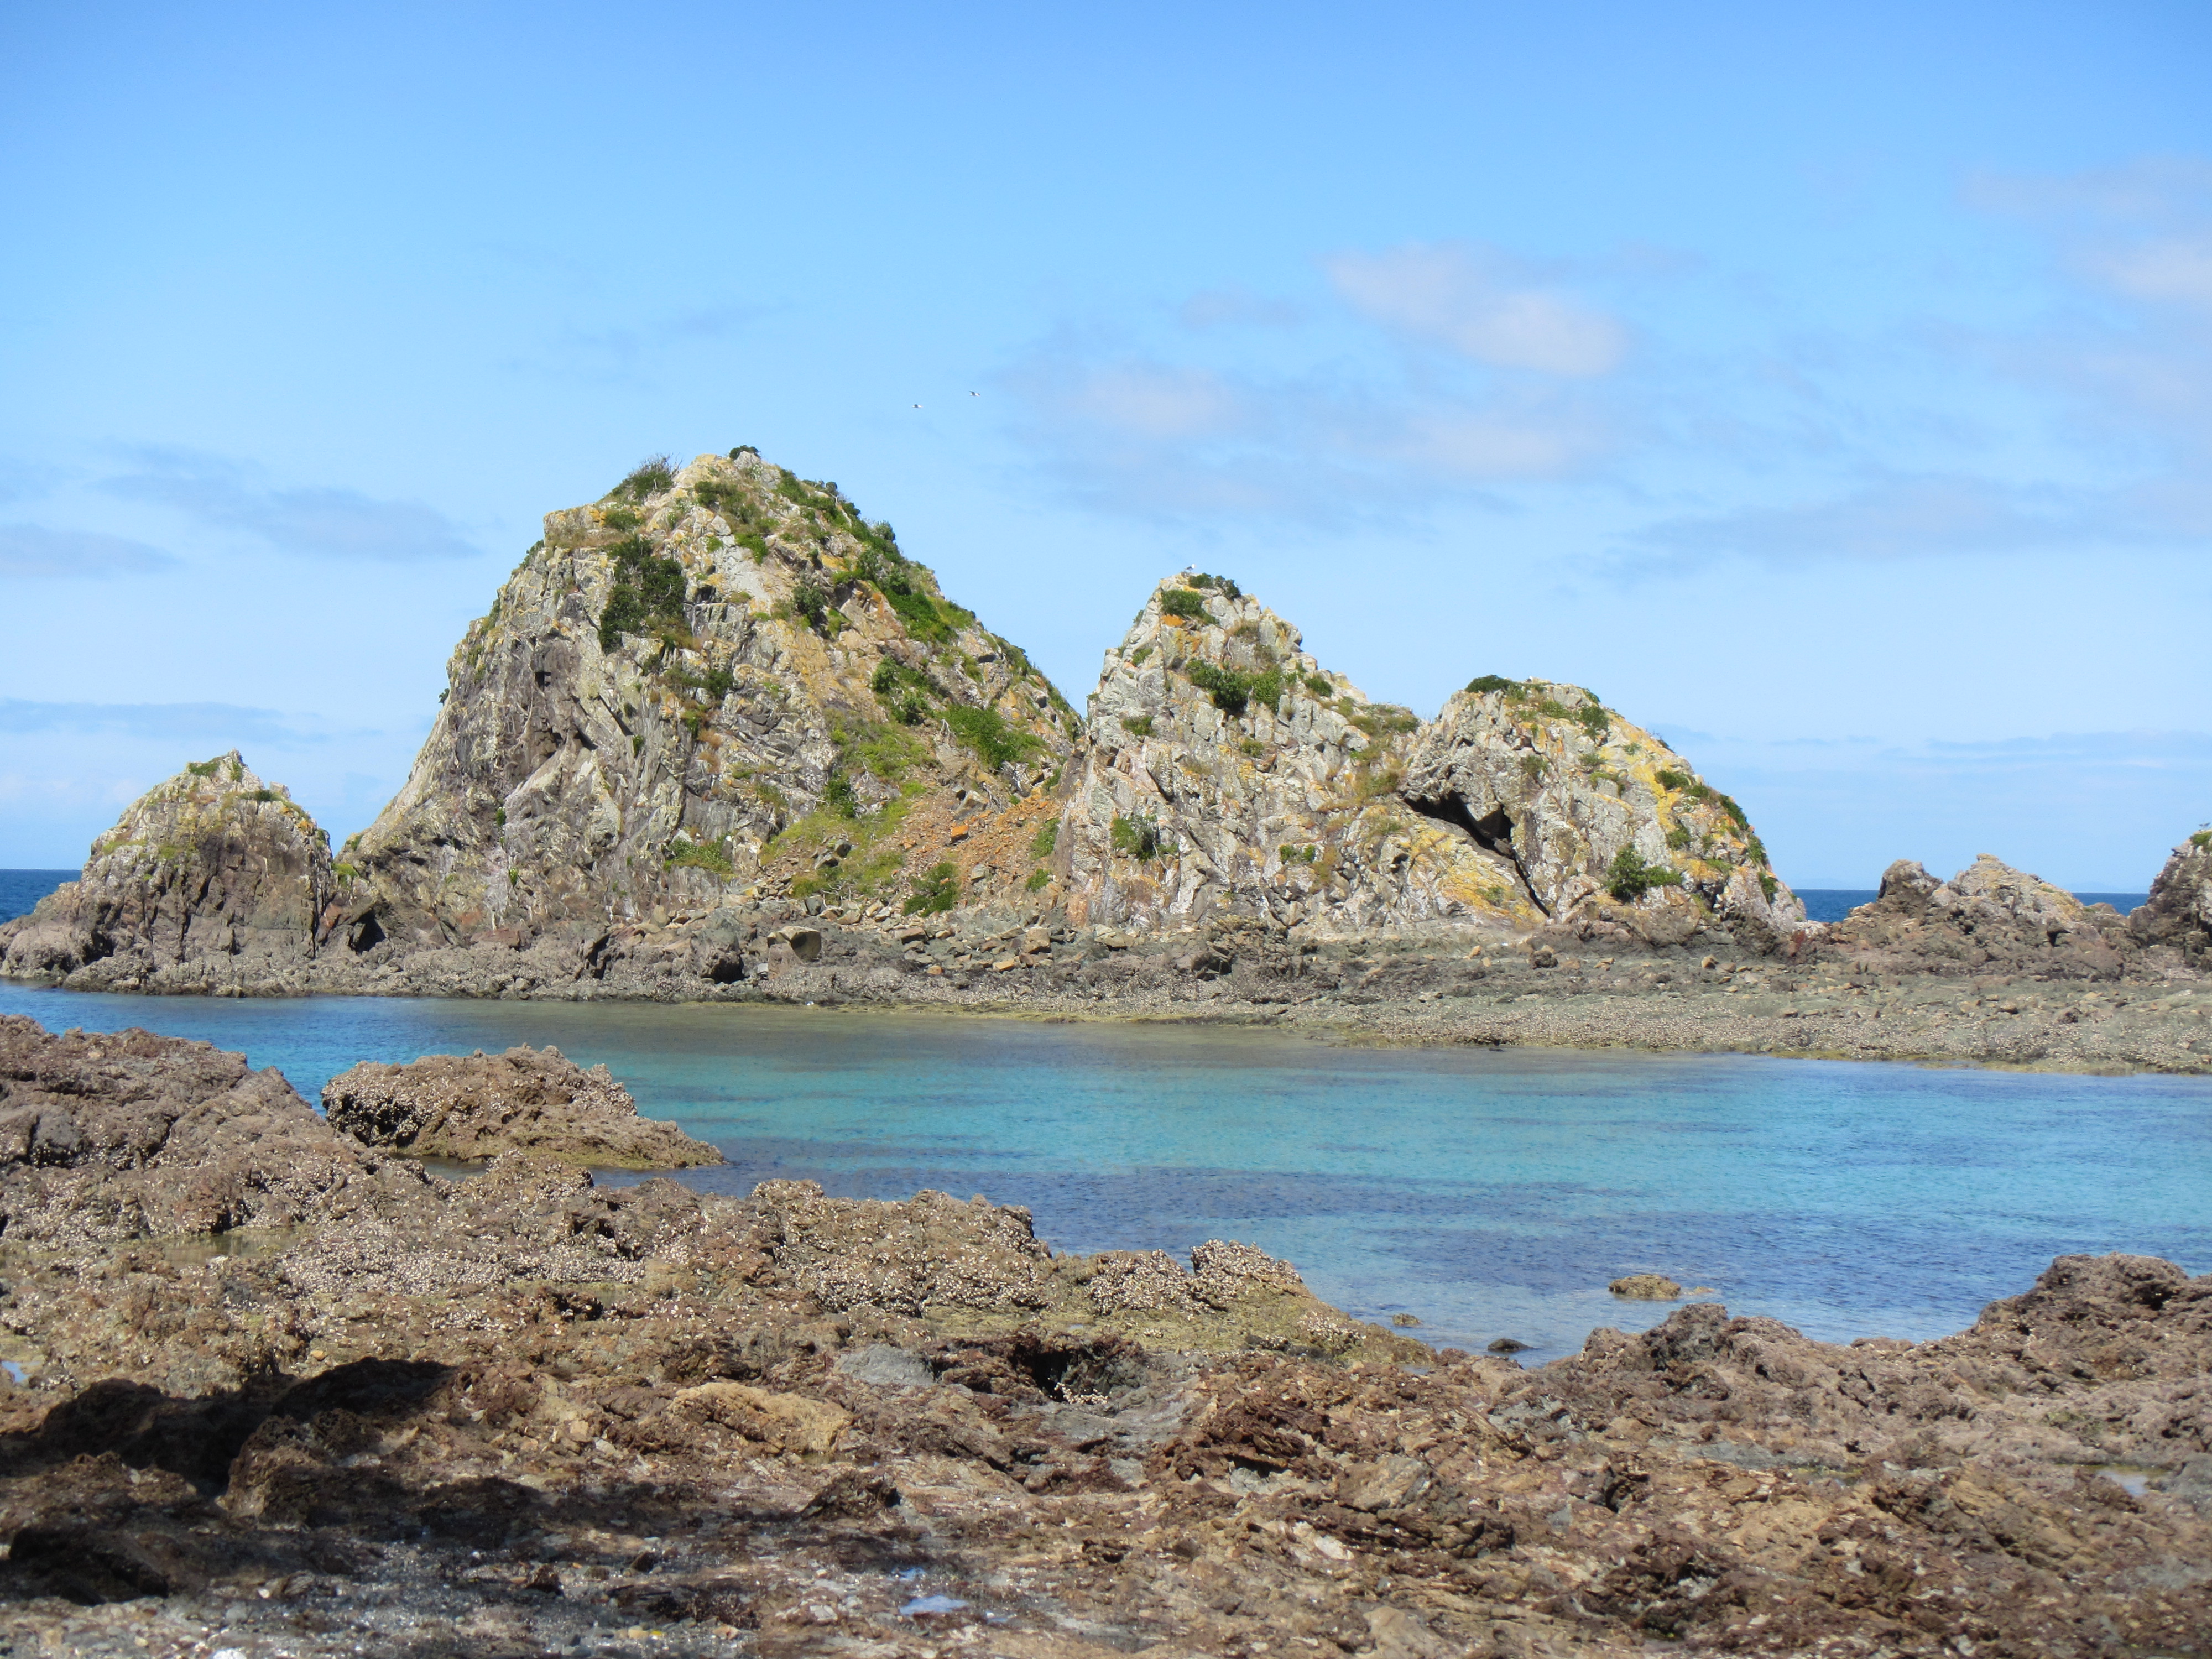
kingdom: Plantae
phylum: Tracheophyta
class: Liliopsida
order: Poales
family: Poaceae
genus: Bromus
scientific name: Bromus diandrus
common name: Ripgut brome
